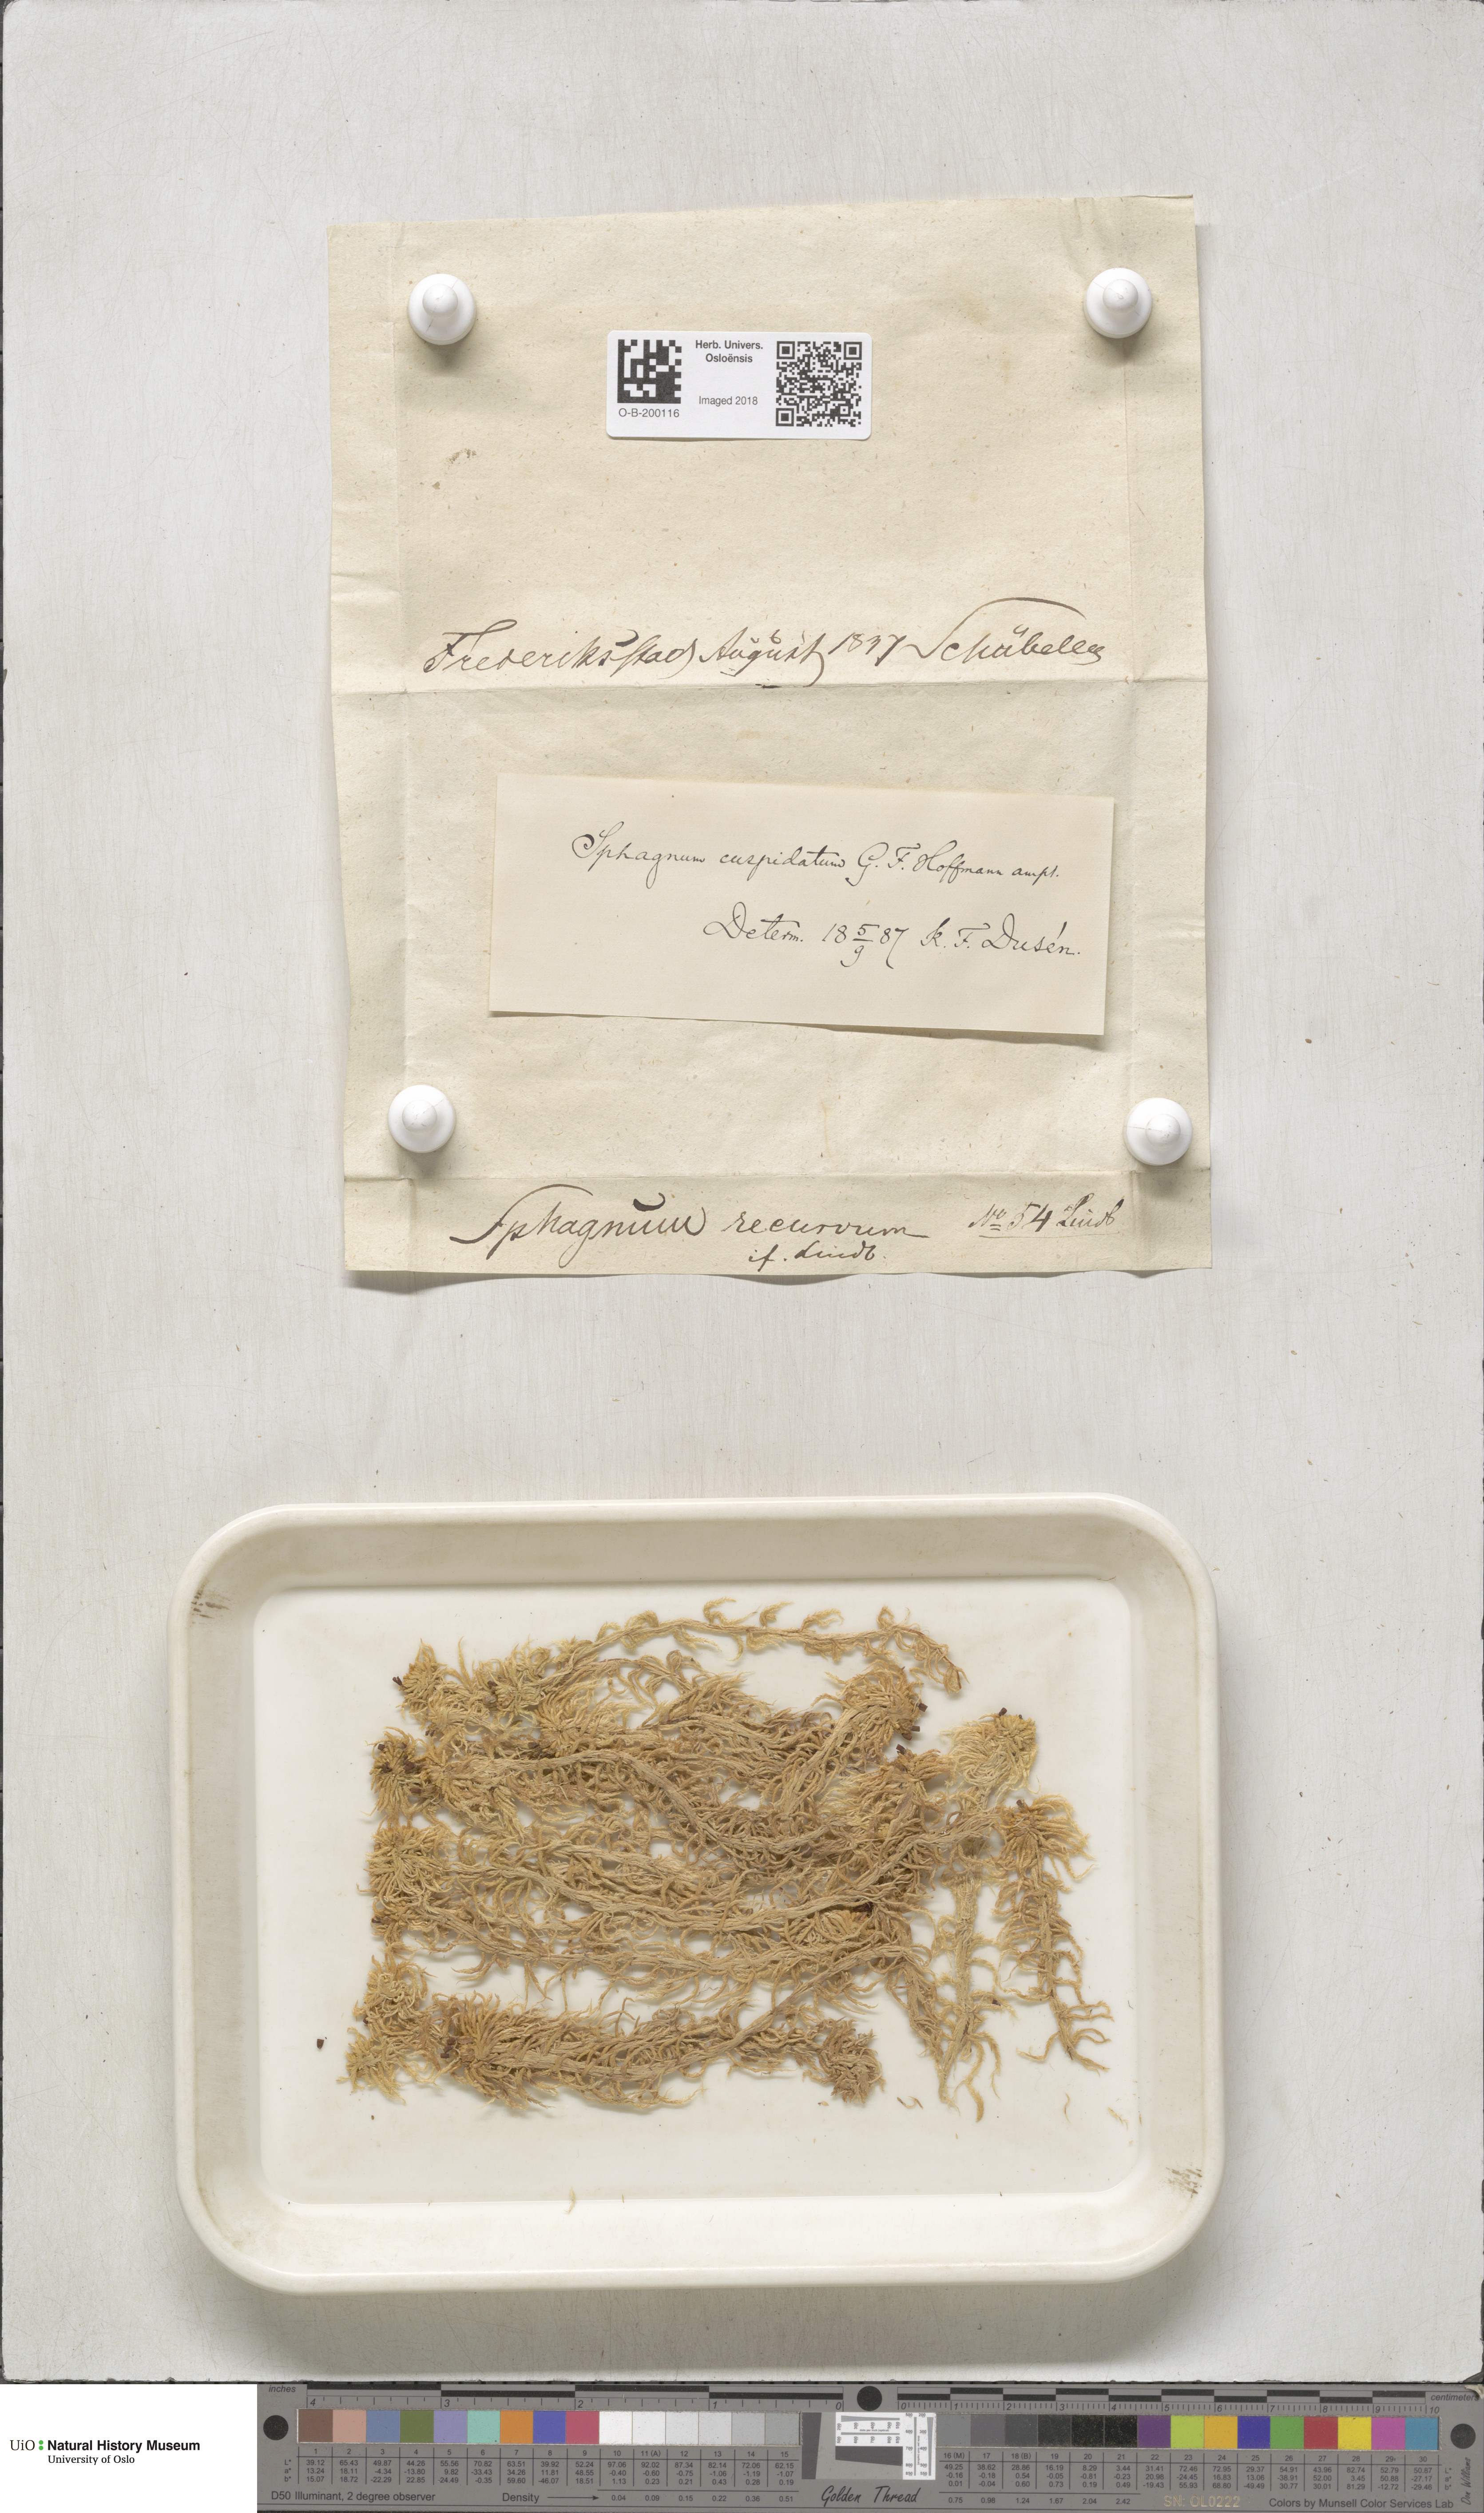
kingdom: Plantae
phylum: Bryophyta
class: Sphagnopsida
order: Sphagnales
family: Sphagnaceae
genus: Sphagnum
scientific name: Sphagnum cuspidatum
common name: Feathery peat moss
